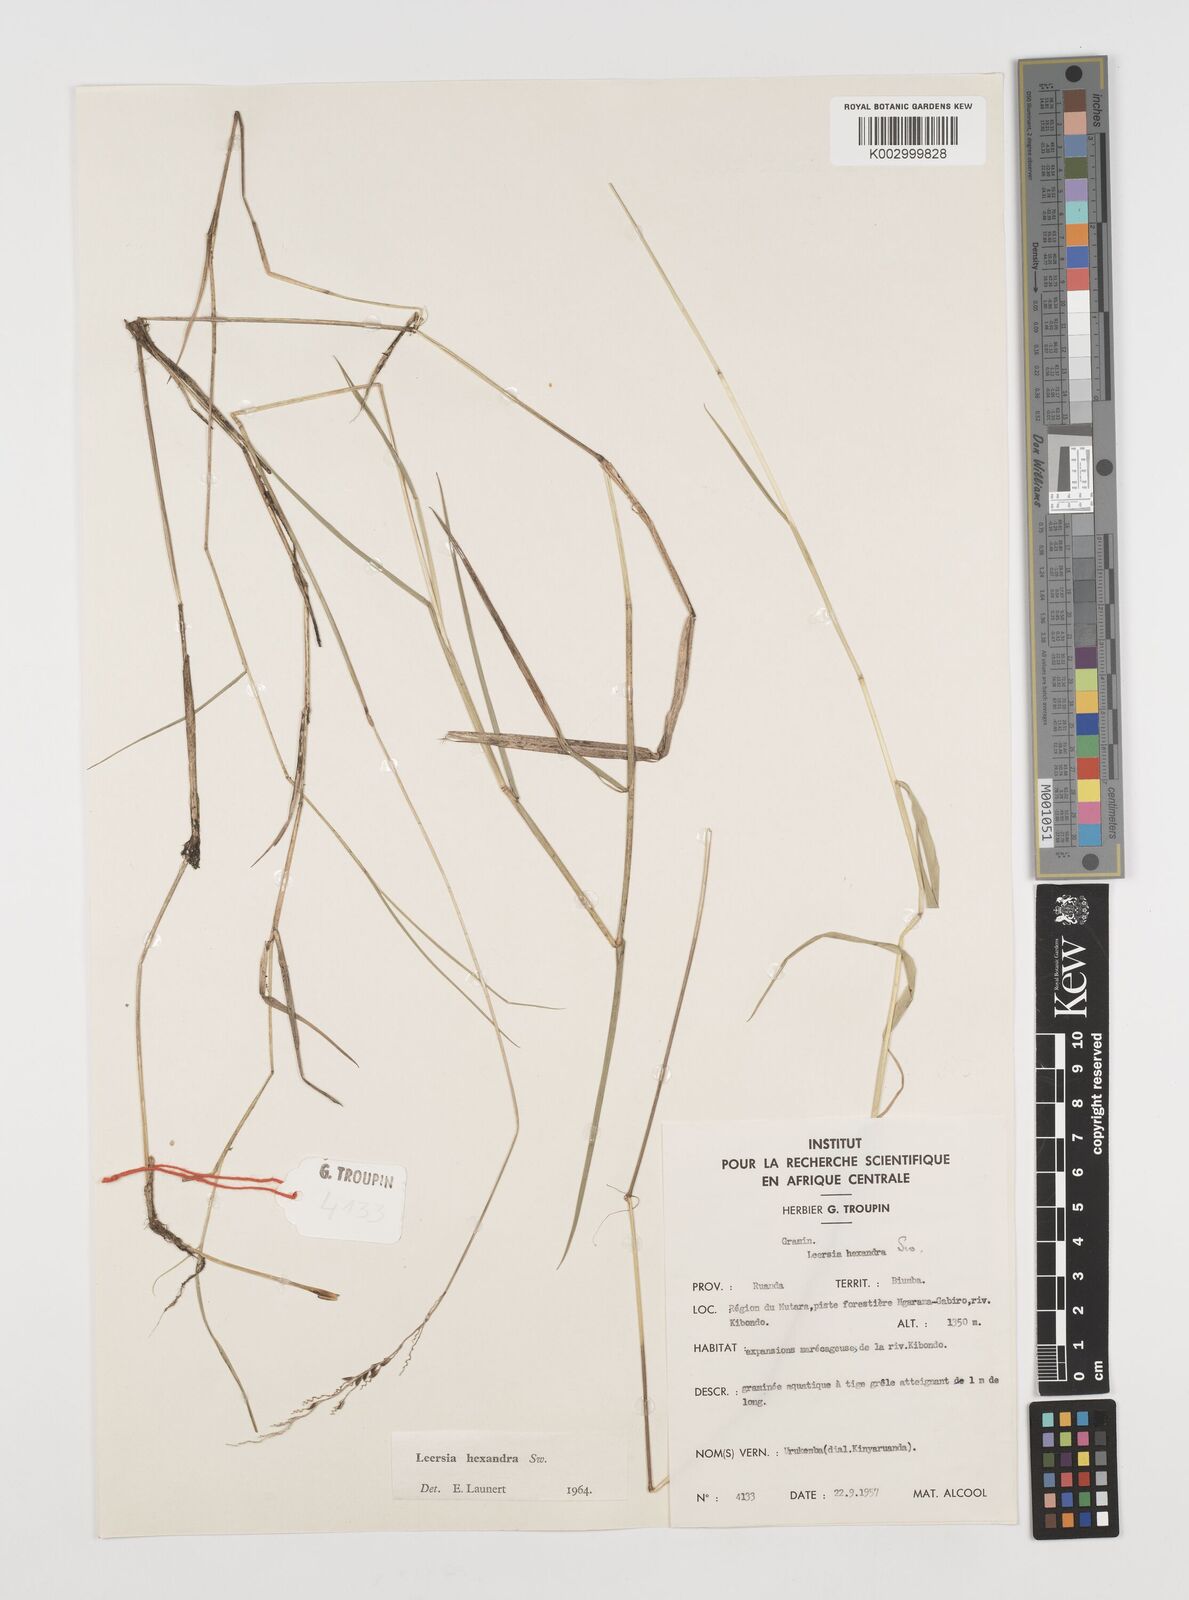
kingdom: Plantae
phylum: Tracheophyta
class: Liliopsida
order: Poales
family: Poaceae
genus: Leersia
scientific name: Leersia hexandra
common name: Southern cut grass
